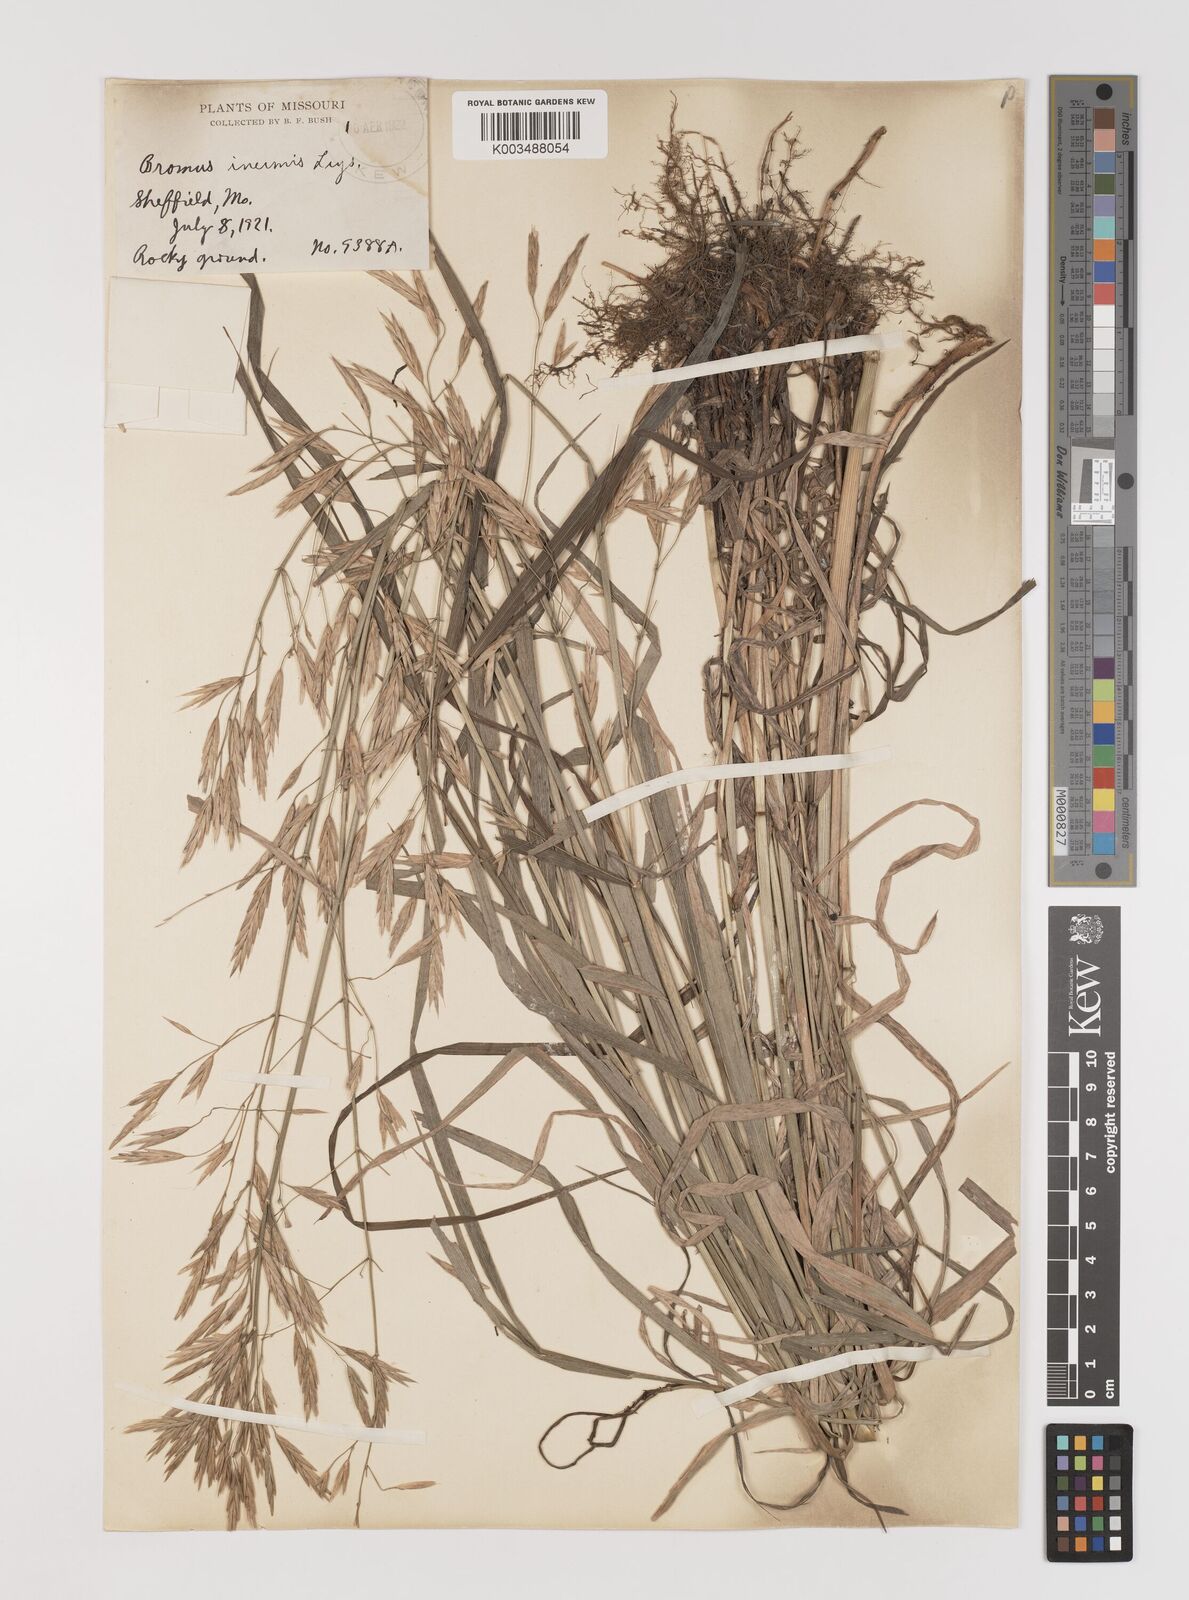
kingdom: Plantae
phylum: Tracheophyta
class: Liliopsida
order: Poales
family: Poaceae
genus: Bromus
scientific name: Bromus inermis
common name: Smooth brome
